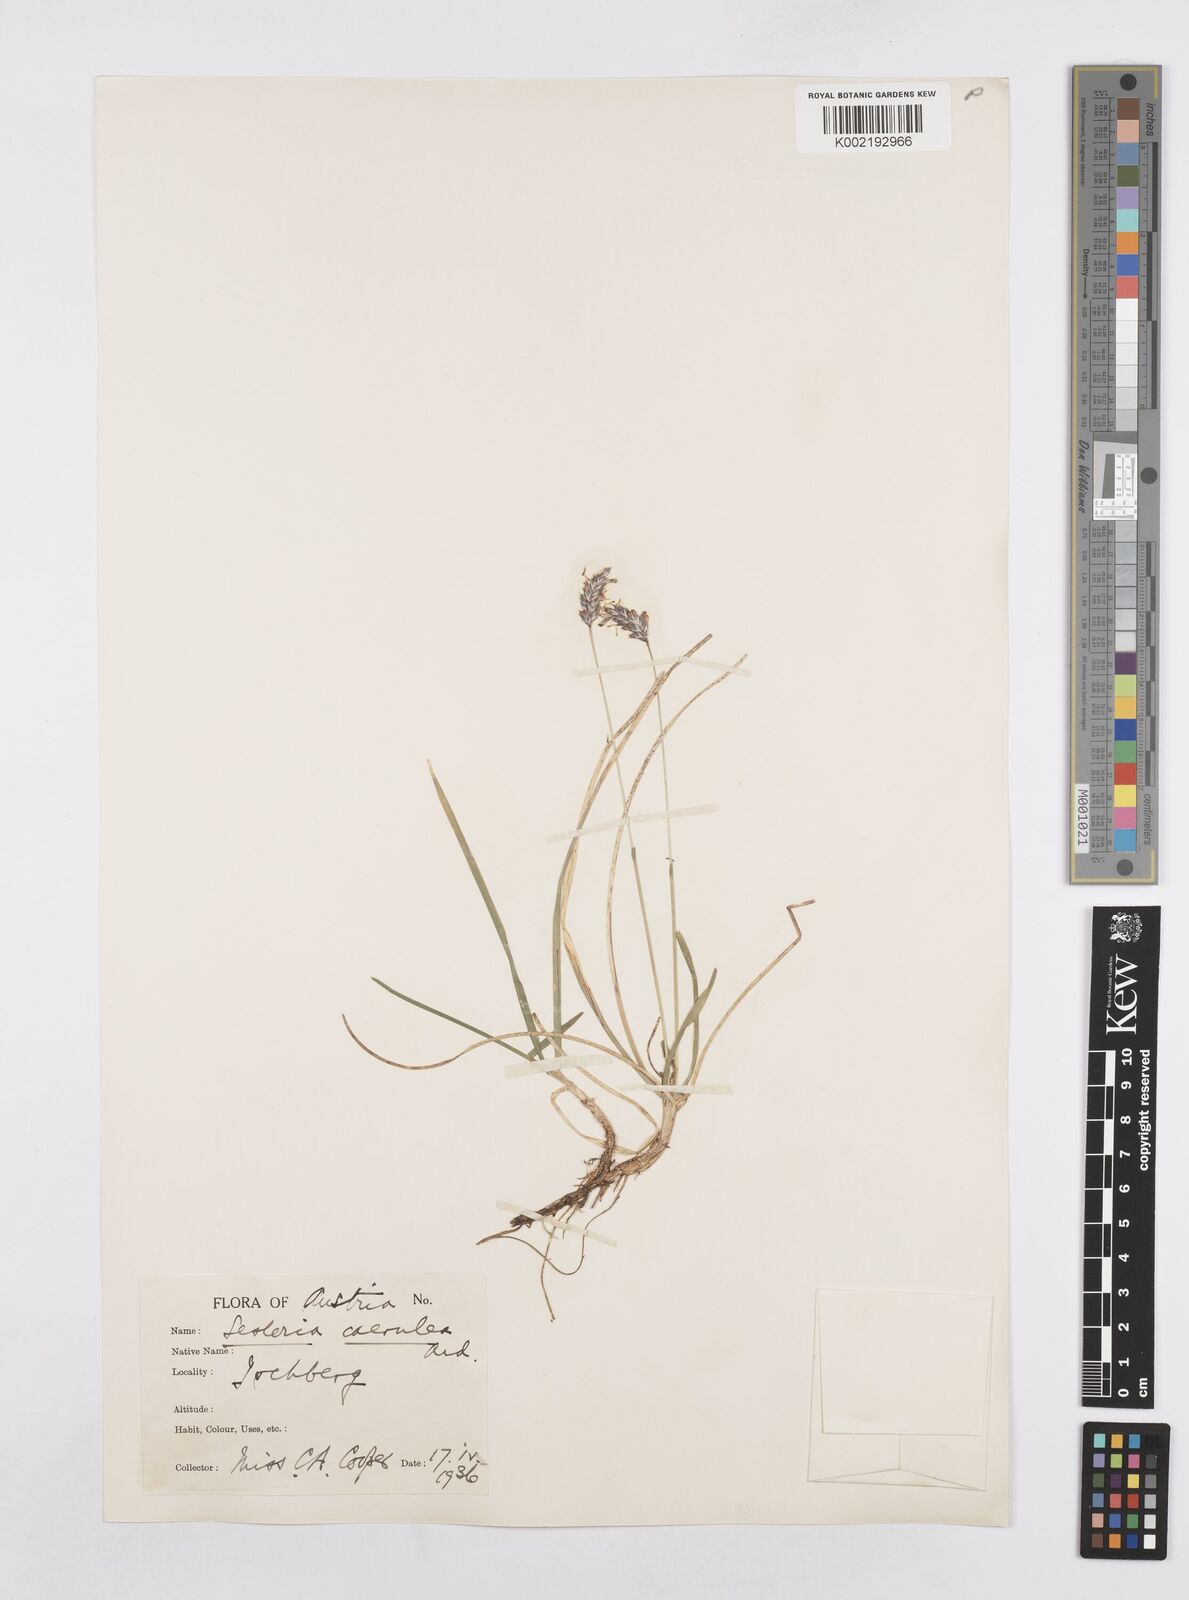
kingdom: Plantae
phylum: Tracheophyta
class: Liliopsida
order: Poales
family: Poaceae
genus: Sesleria
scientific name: Sesleria caerulea
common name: Blue moor-grass
